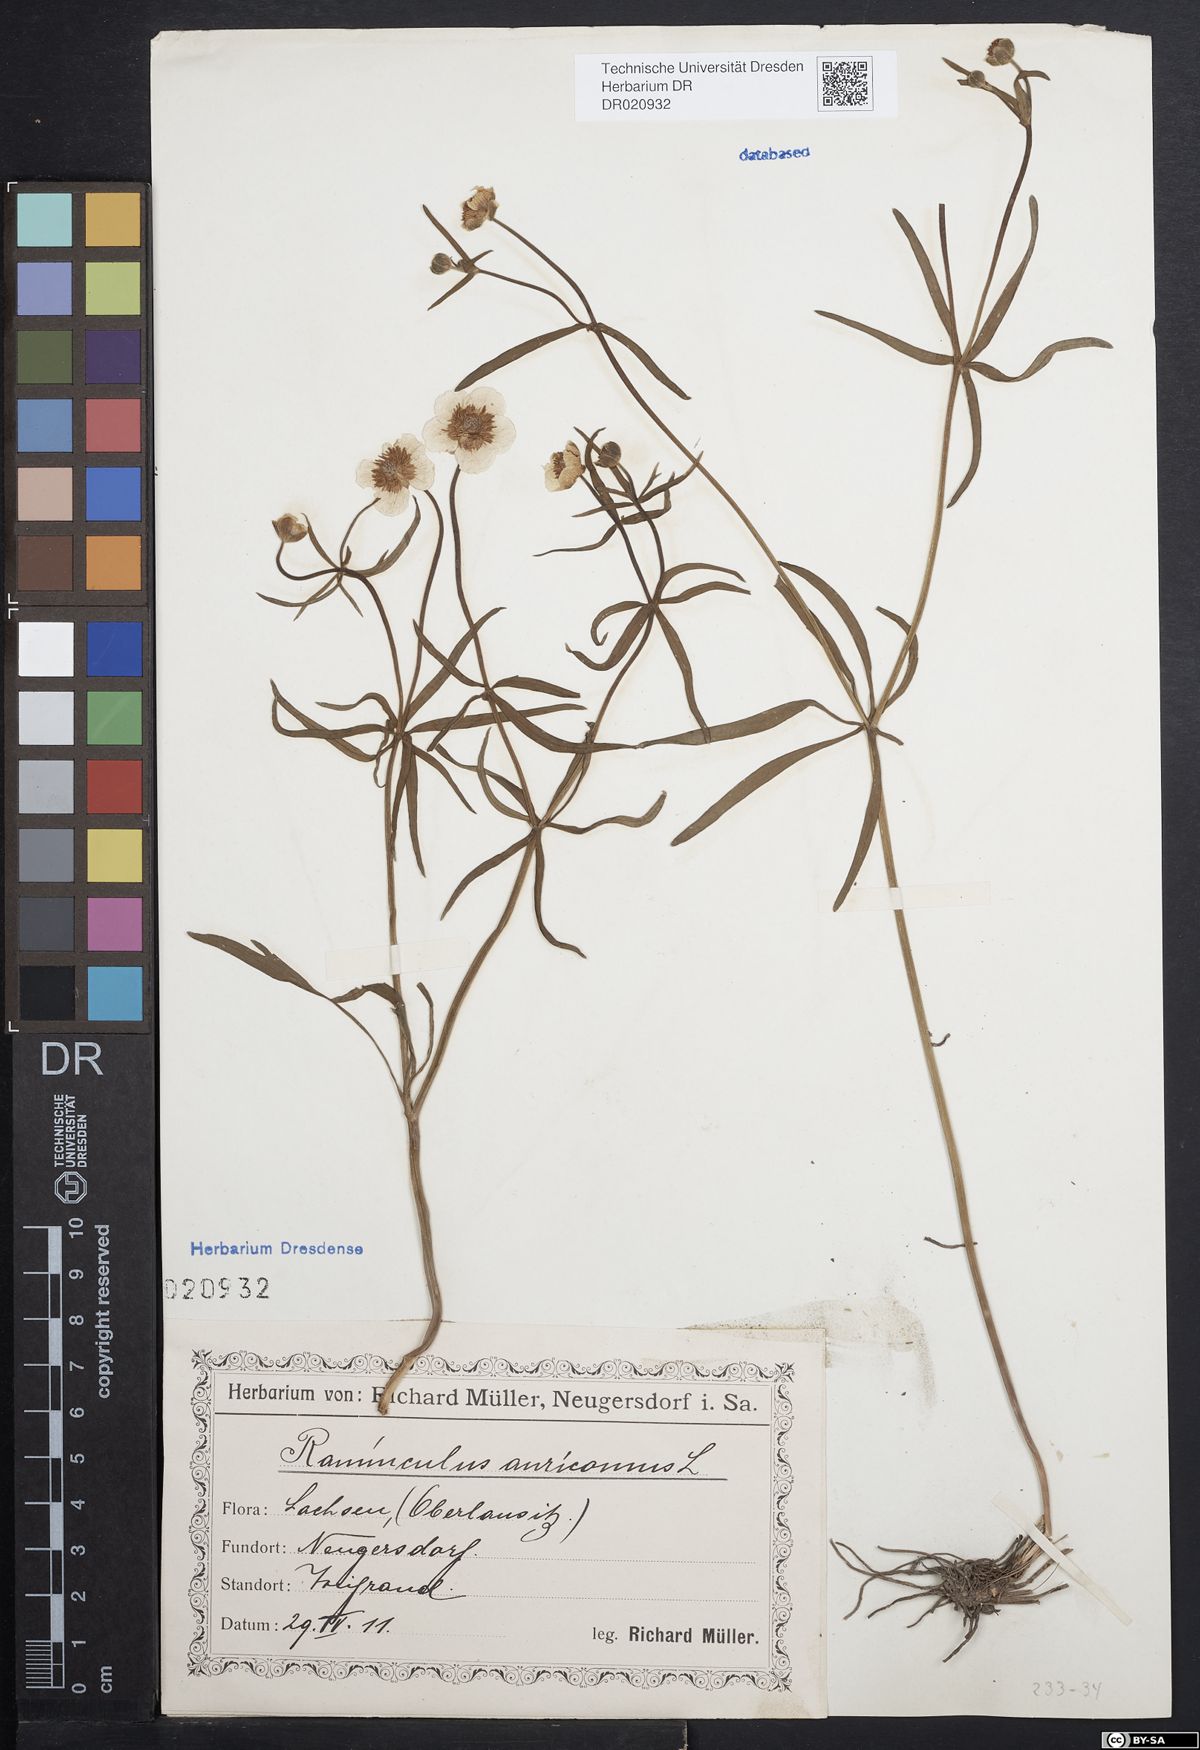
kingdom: Plantae
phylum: Tracheophyta
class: Magnoliopsida
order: Ranunculales
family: Ranunculaceae
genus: Ranunculus
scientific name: Ranunculus auricomus
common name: Goldilocks buttercup
